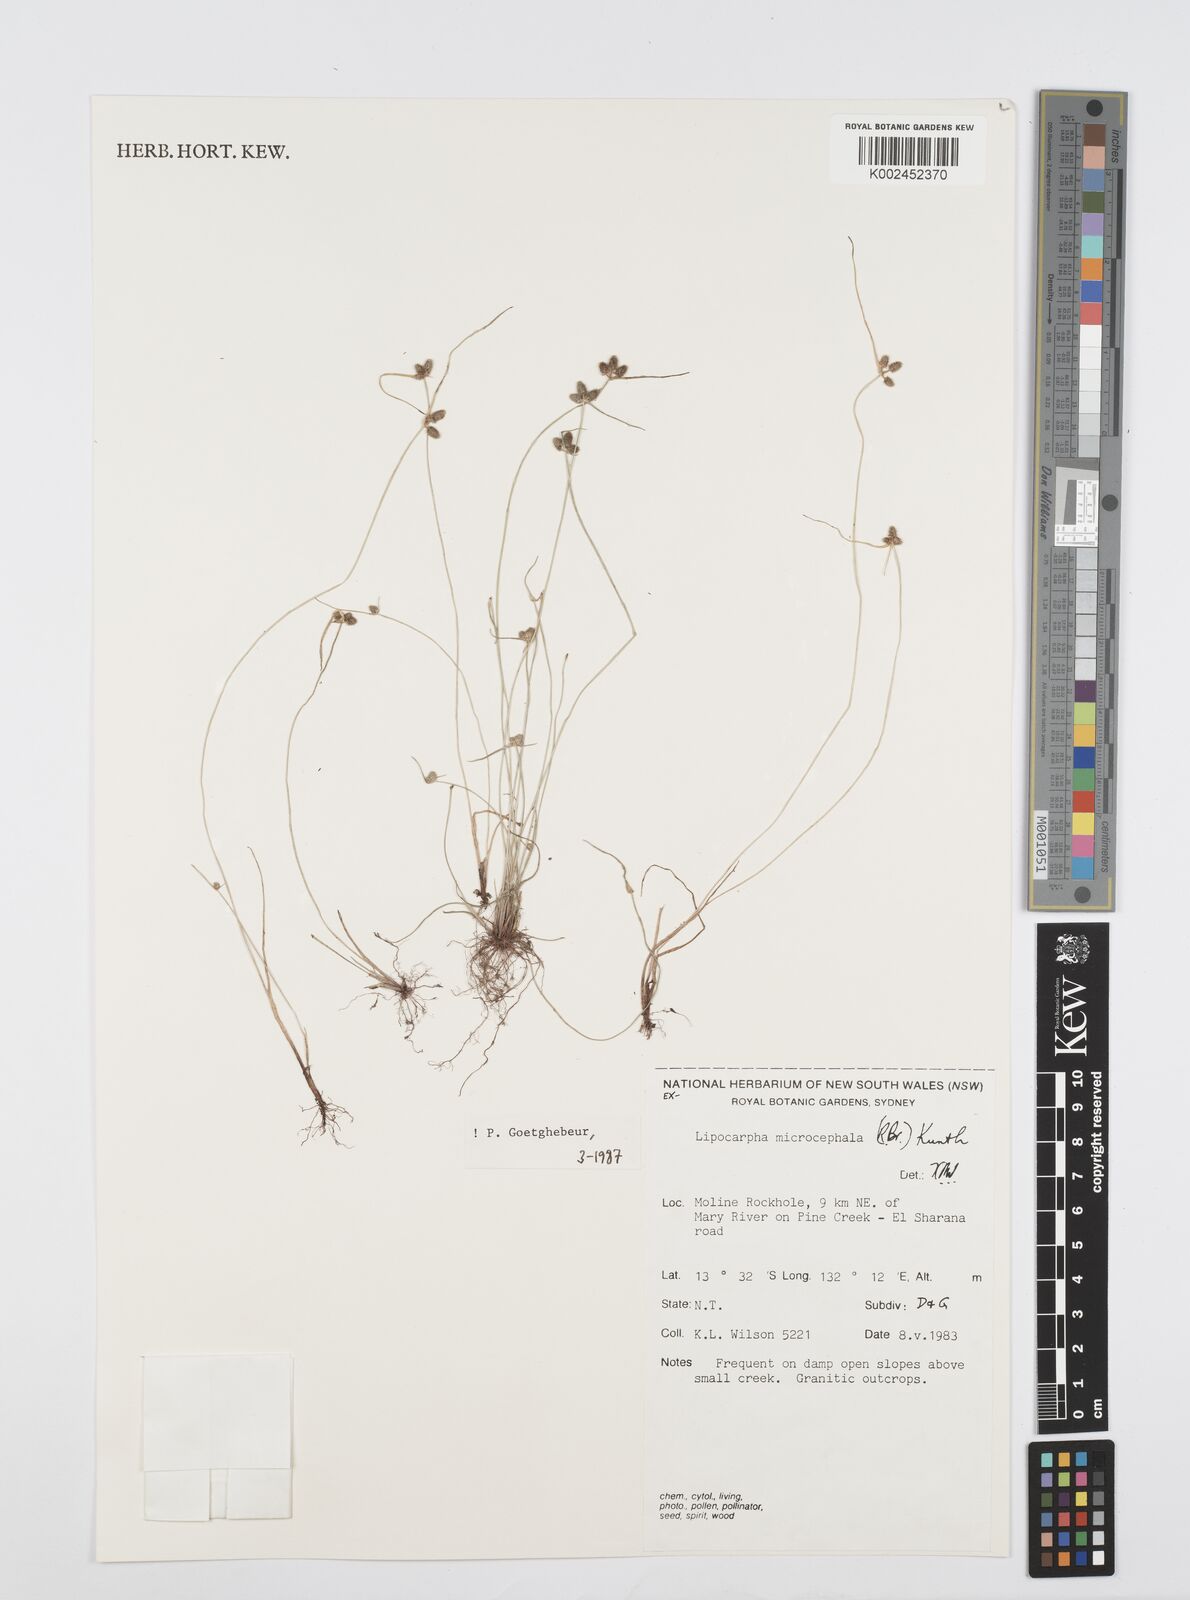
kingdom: Plantae
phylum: Tracheophyta
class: Liliopsida
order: Poales
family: Cyperaceae
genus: Cyperus
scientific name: Cyperus microcephalus
